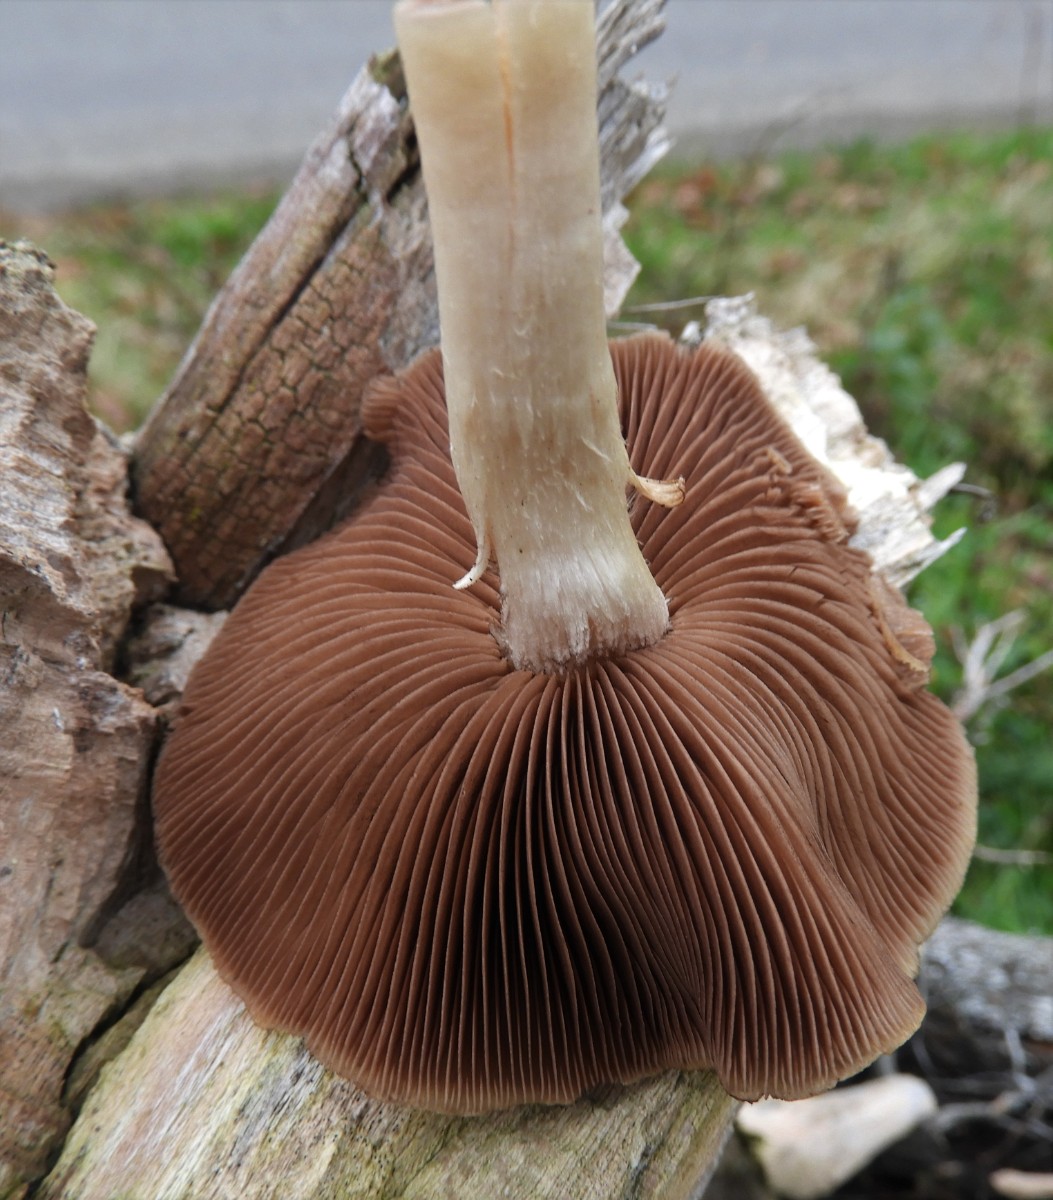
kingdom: Fungi
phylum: Basidiomycota
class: Agaricomycetes
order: Agaricales
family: Psathyrellaceae
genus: Psathyrella
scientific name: Psathyrella
